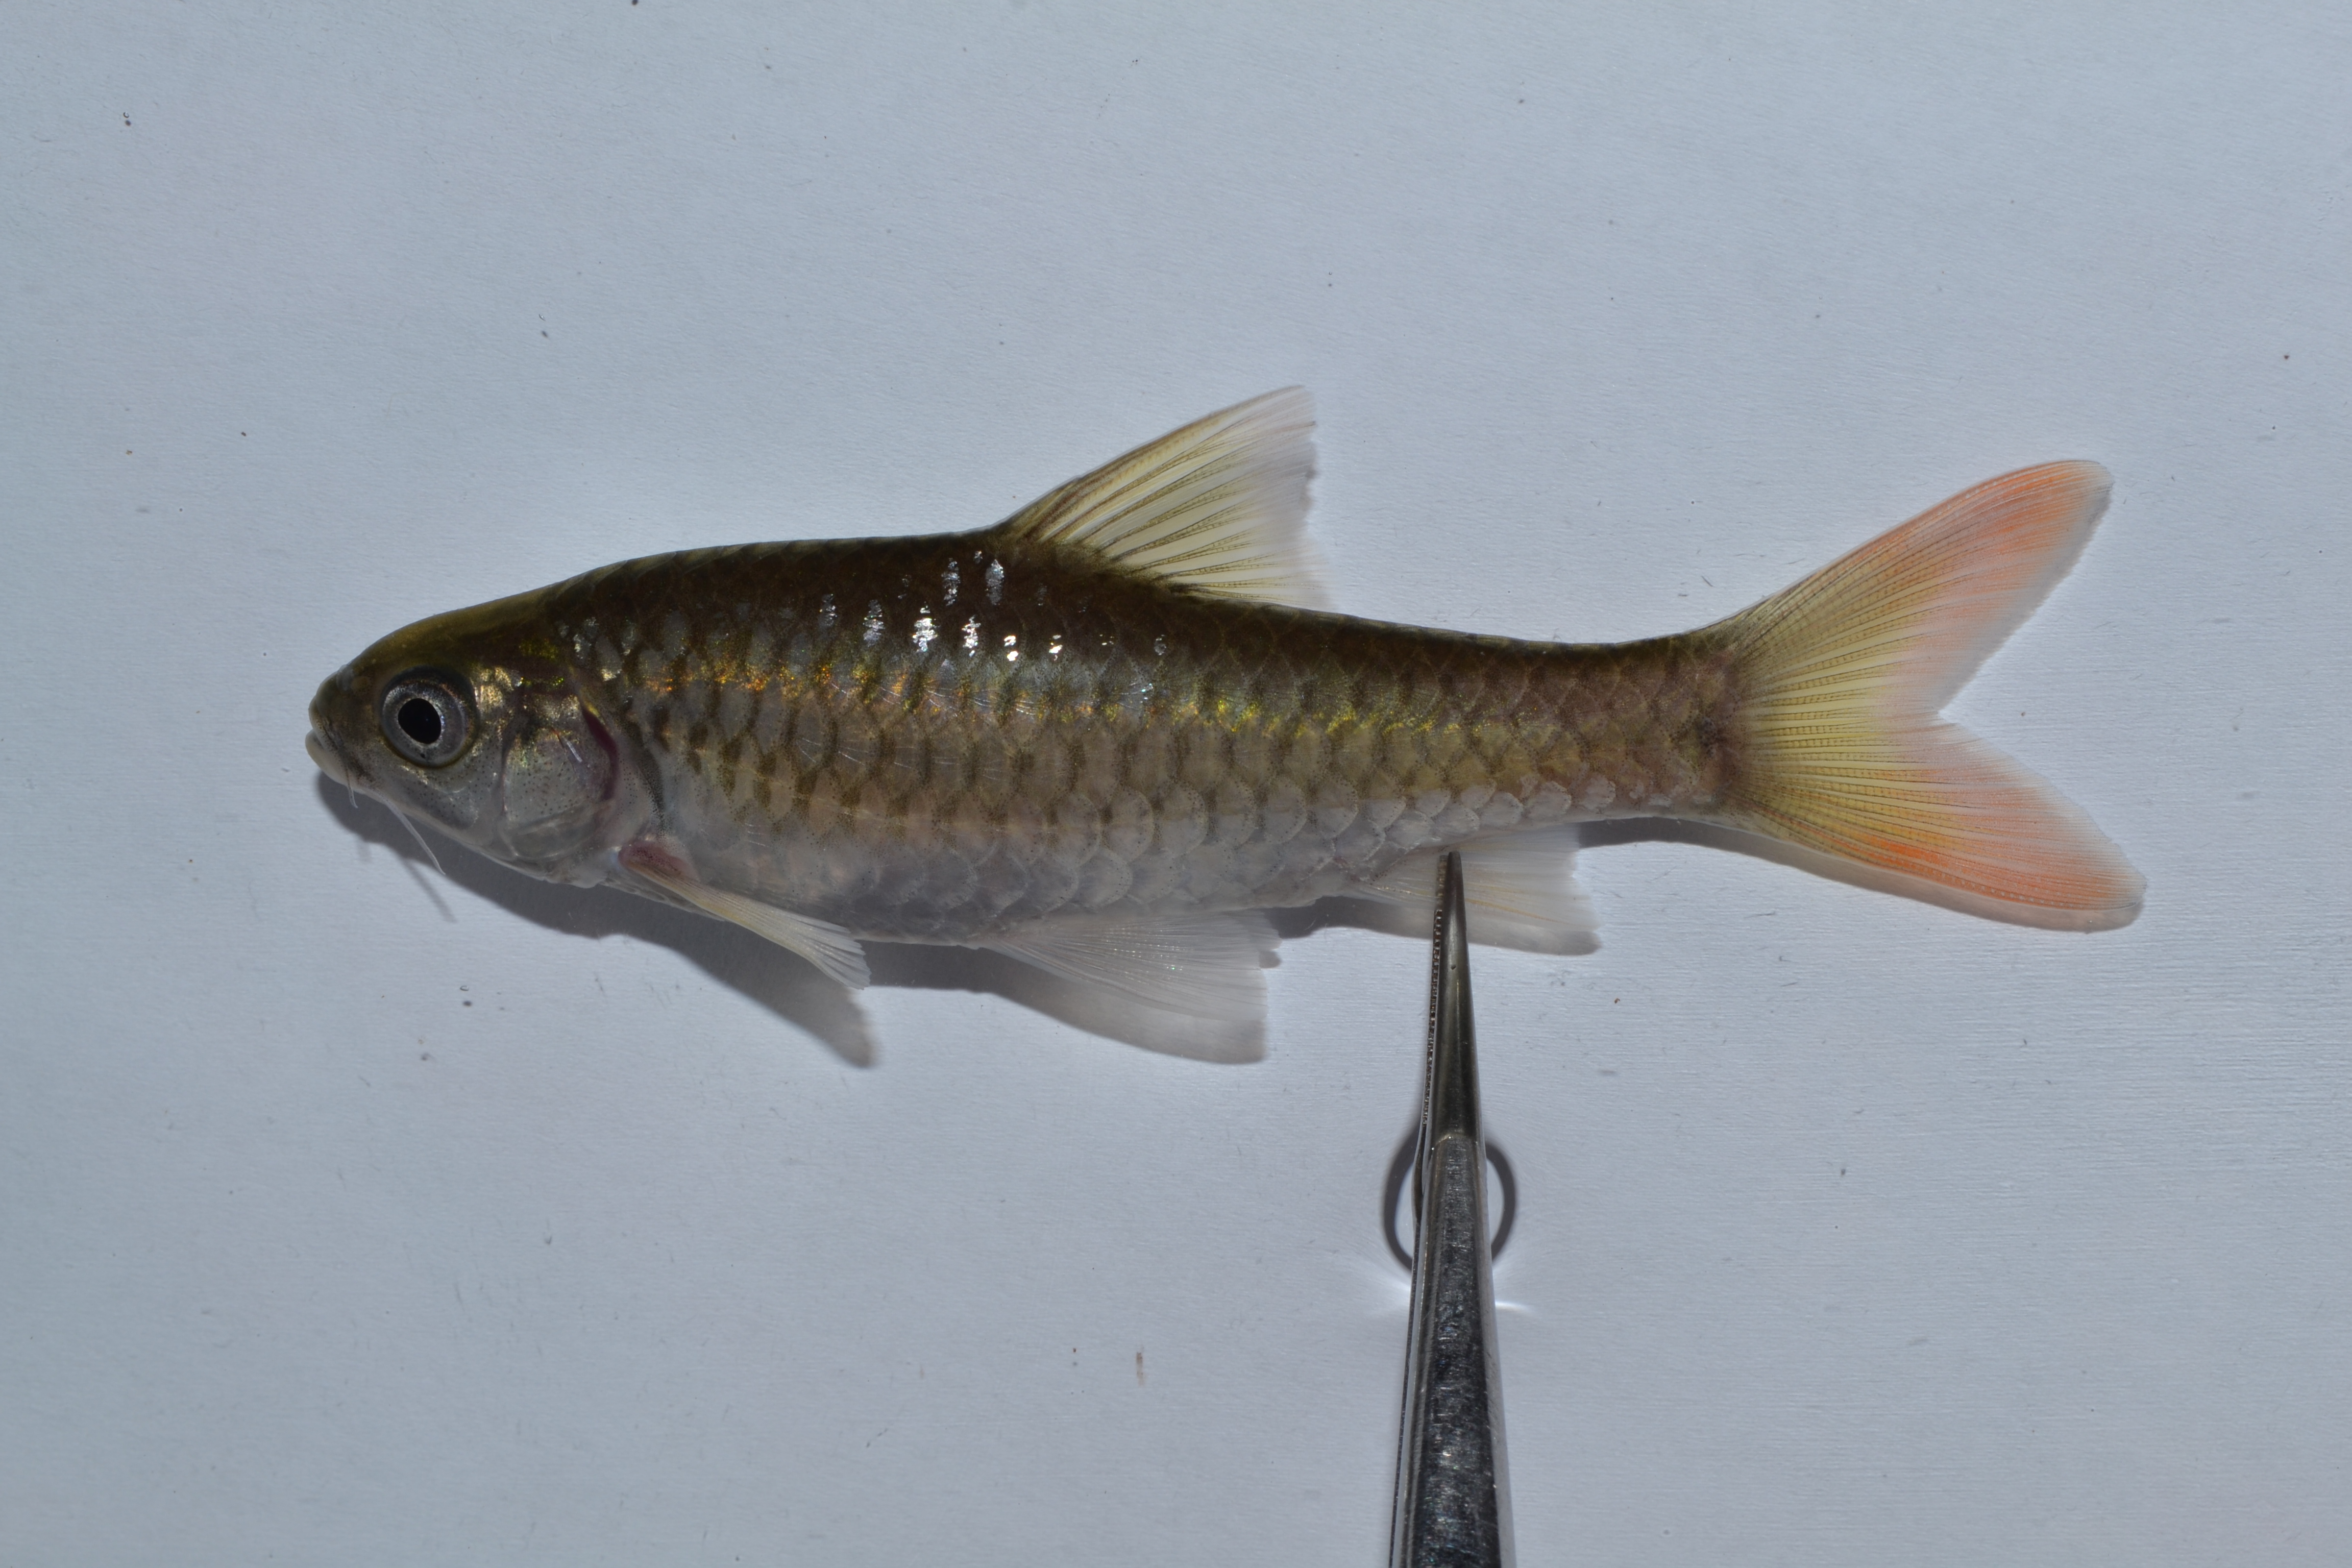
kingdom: Animalia
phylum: Chordata
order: Cypriniformes
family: Cyprinidae
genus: Enteromius
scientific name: Enteromius manicensis
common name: Yellow barb
